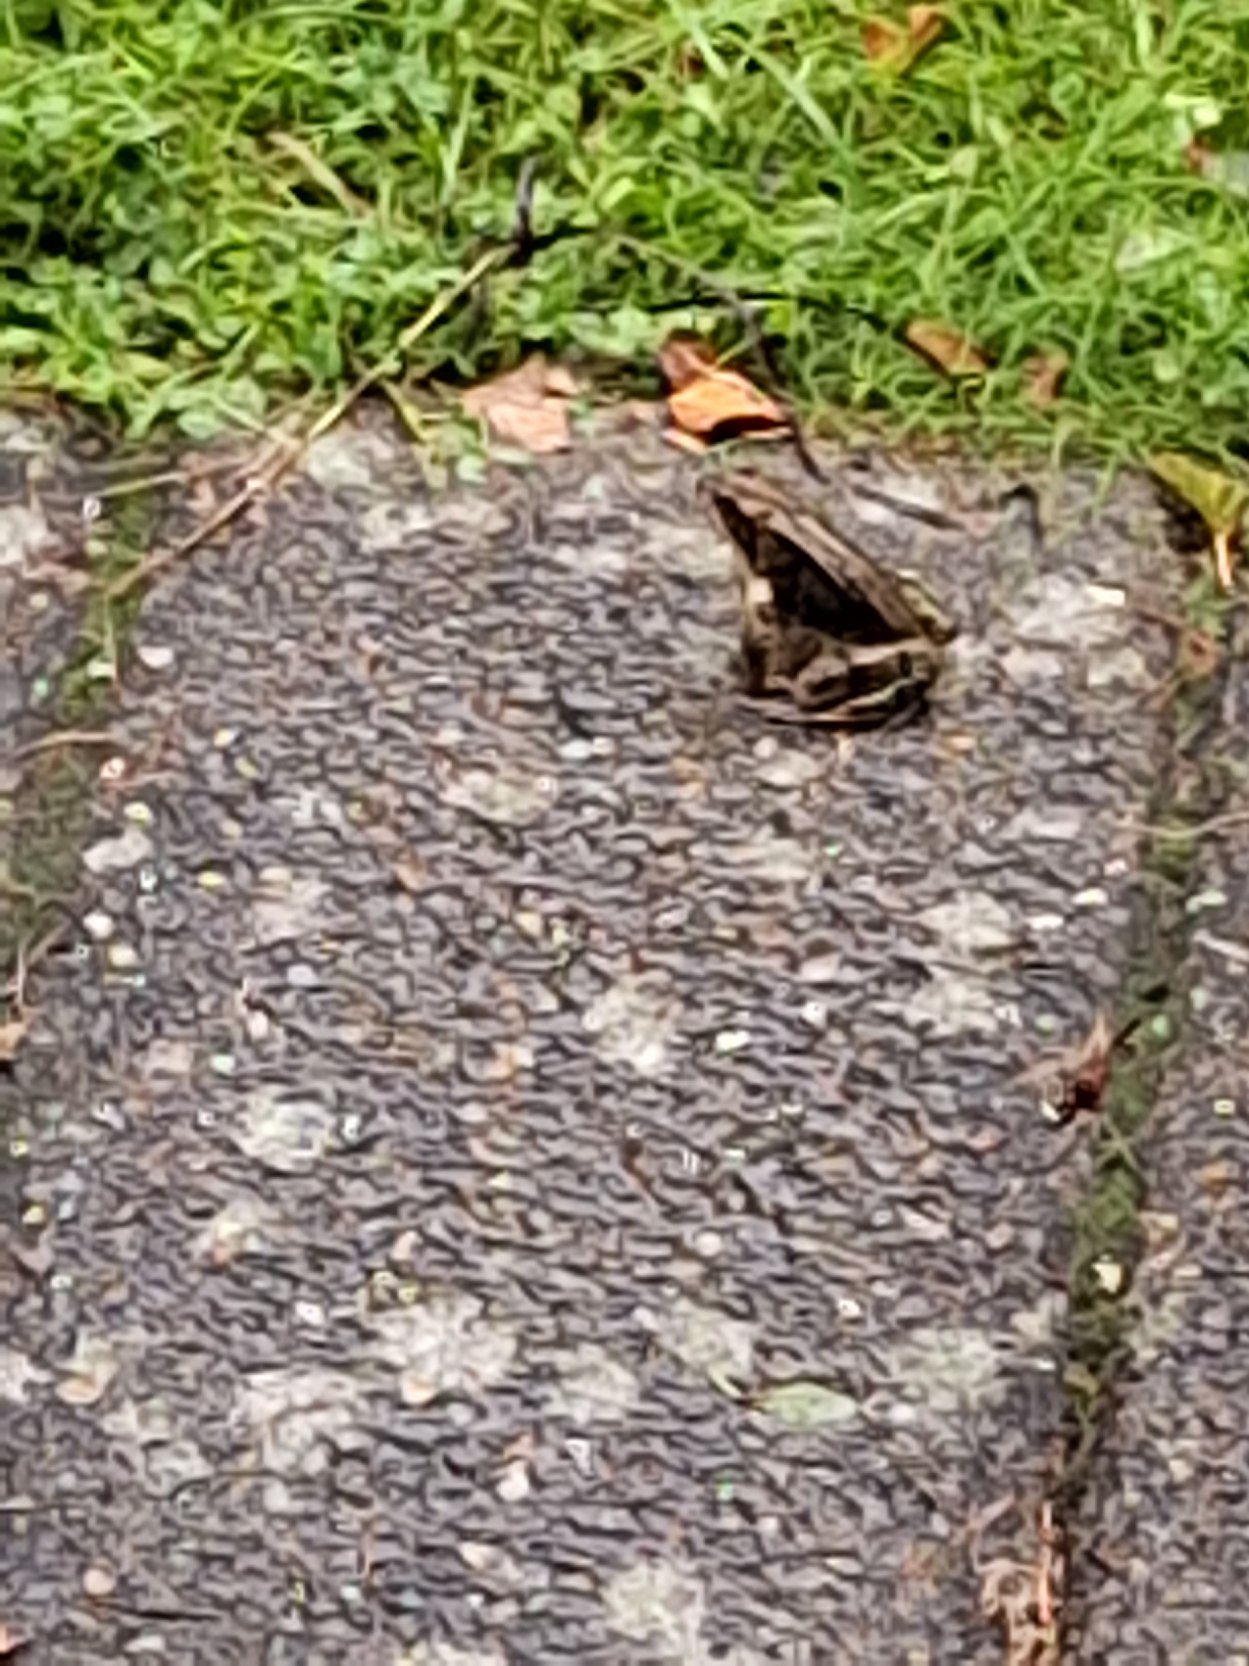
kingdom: Animalia
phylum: Chordata
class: Amphibia
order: Anura
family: Ranidae
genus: Rana
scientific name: Rana temporaria
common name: Butsnudet frø
